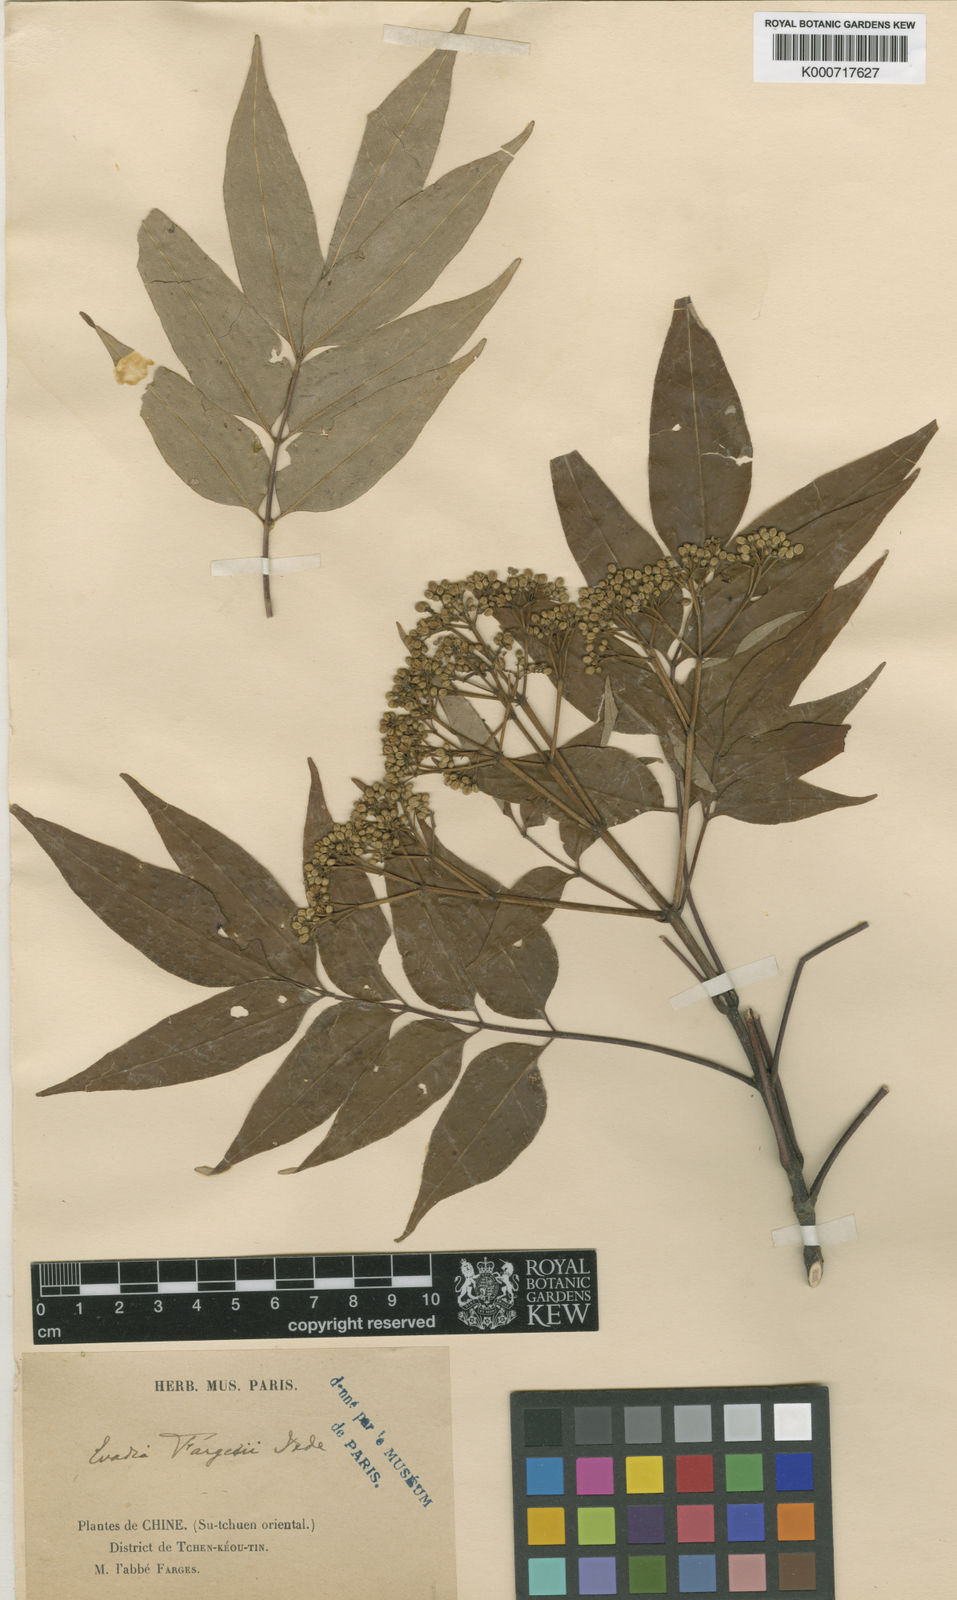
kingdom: Plantae
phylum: Tracheophyta
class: Magnoliopsida
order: Sapindales
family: Rutaceae
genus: Tetradium
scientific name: Tetradium glabrifolium
